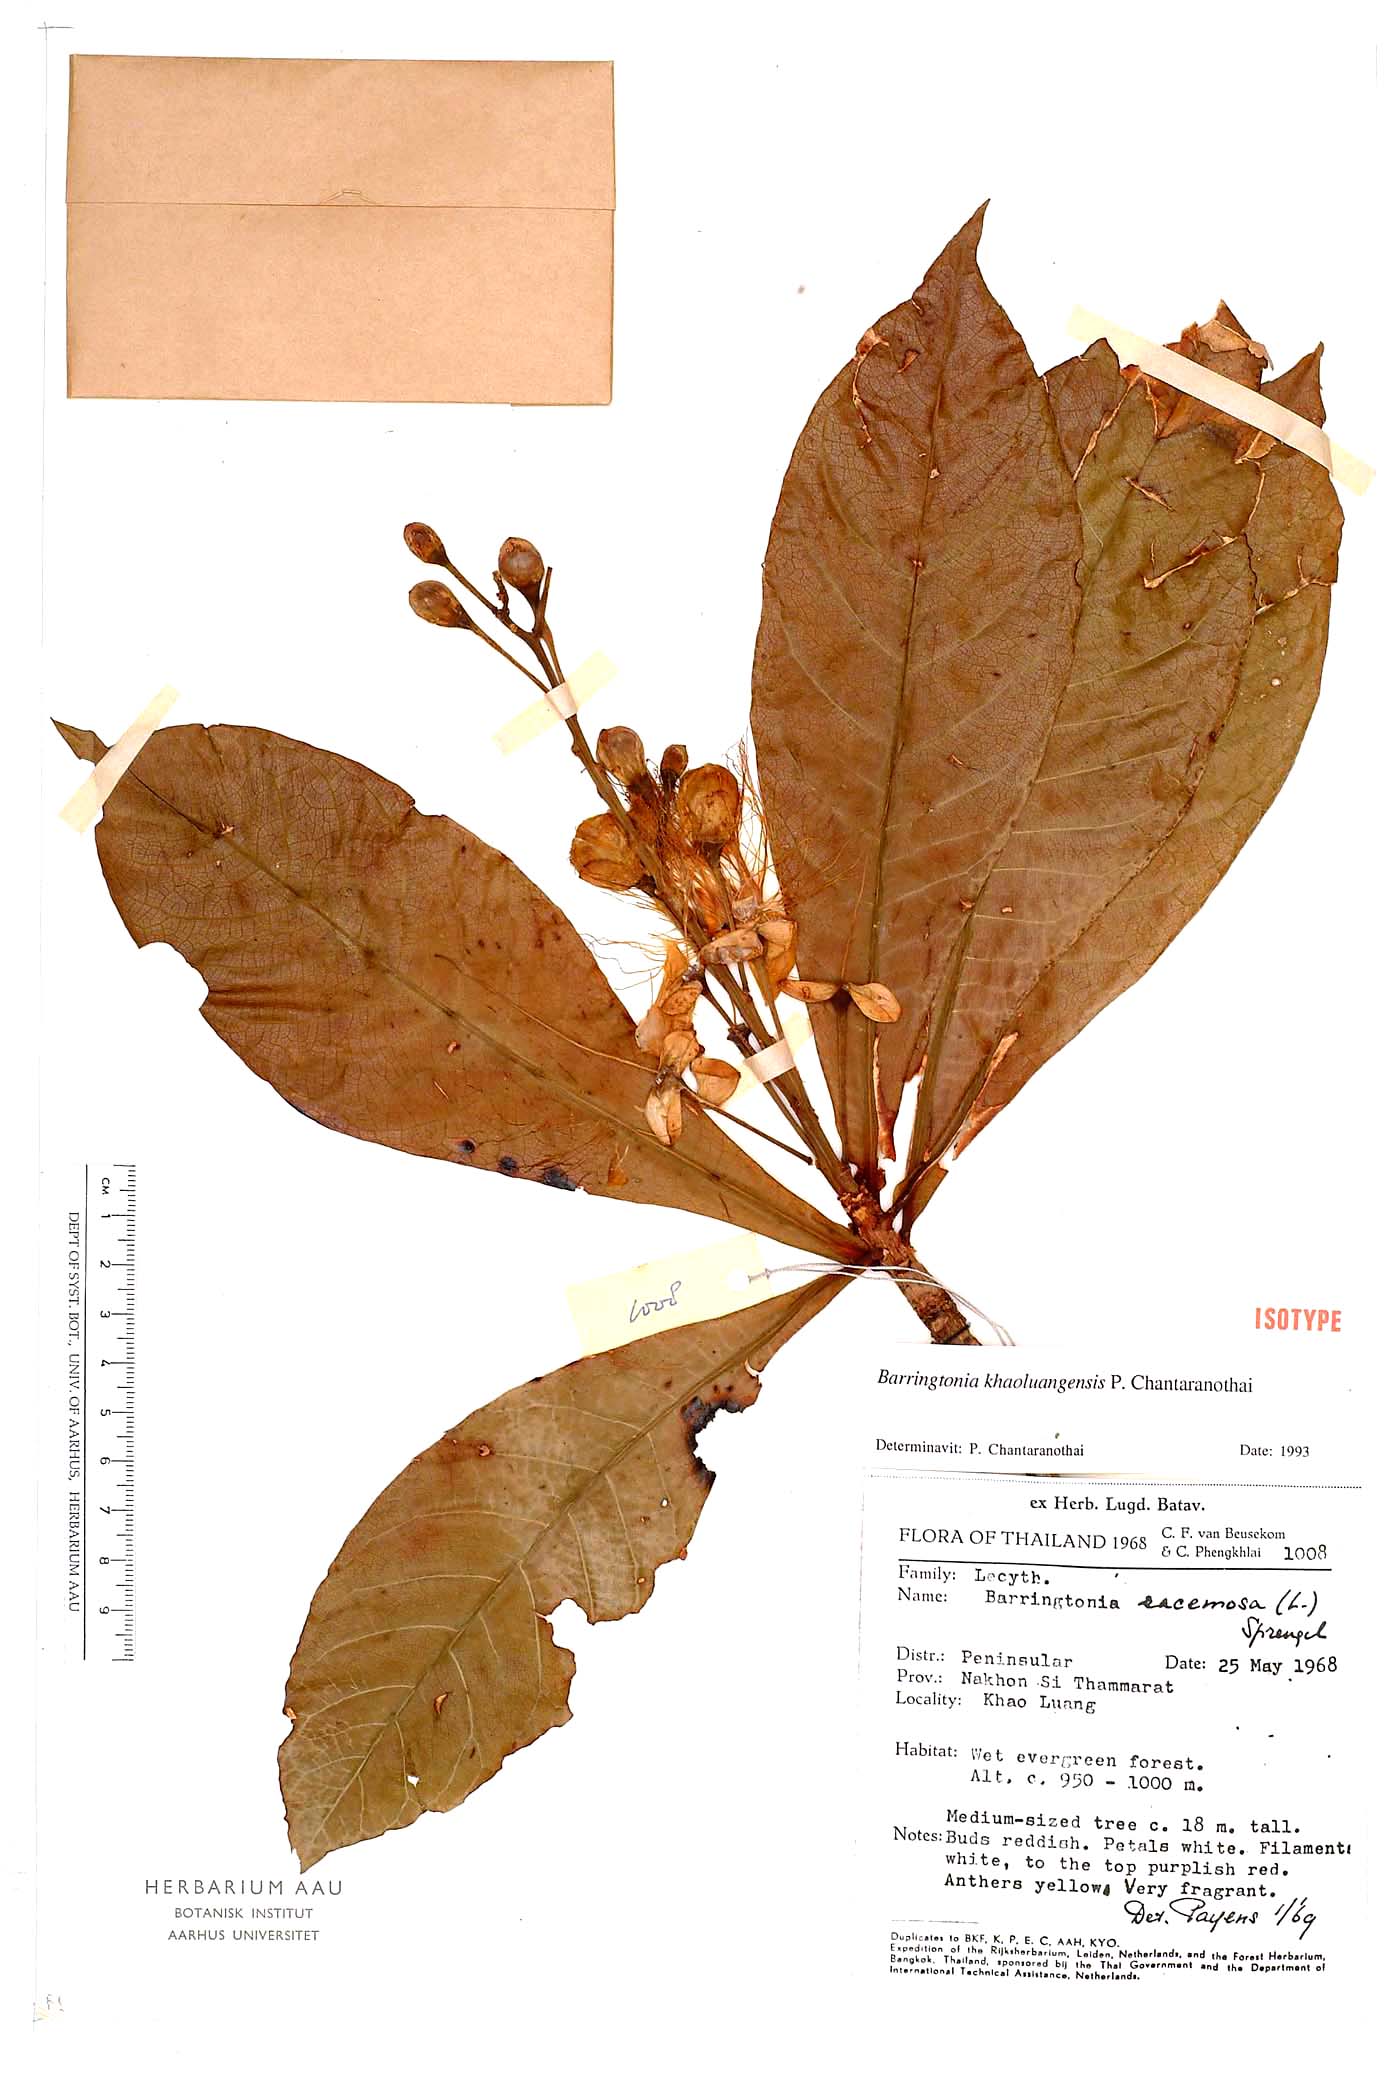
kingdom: Plantae
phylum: Tracheophyta
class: Magnoliopsida
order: Ericales
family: Lecythidaceae
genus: Barringtonia
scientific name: Barringtonia khaoluangensis
